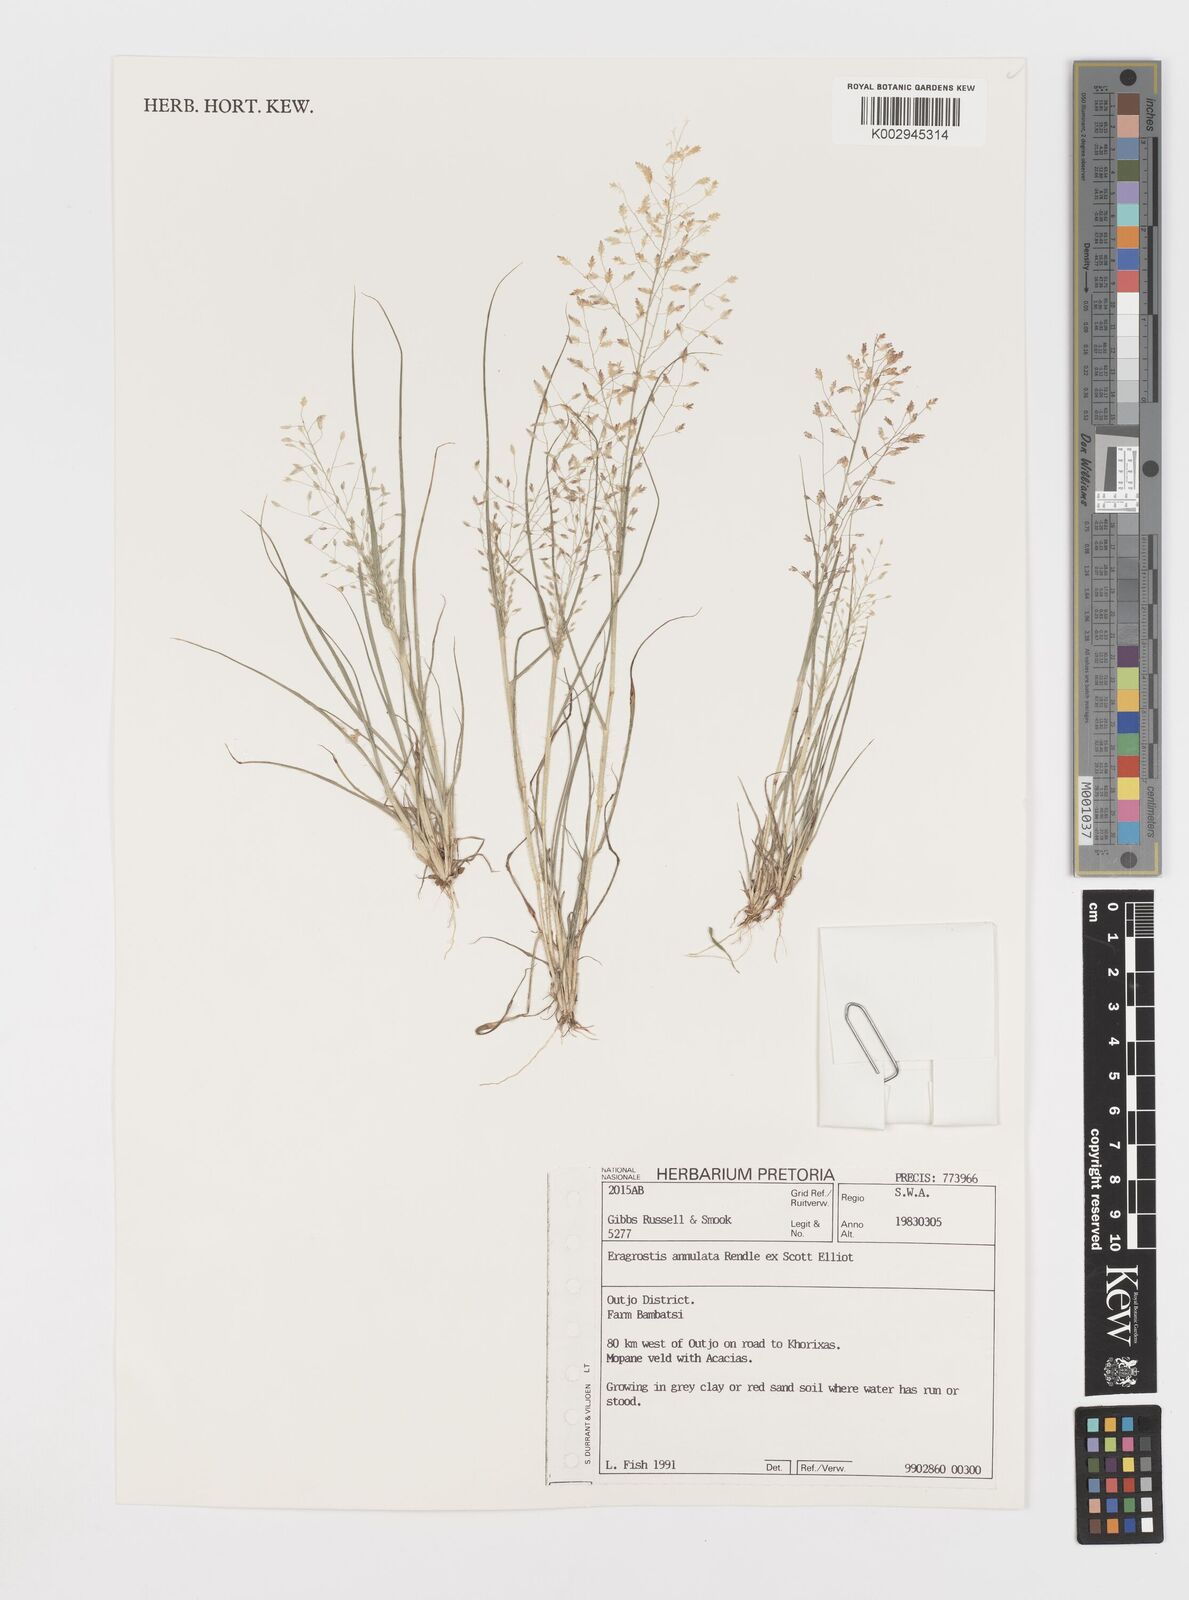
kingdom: Plantae
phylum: Tracheophyta
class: Liliopsida
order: Poales
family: Poaceae
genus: Eragrostis
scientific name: Eragrostis annulata
